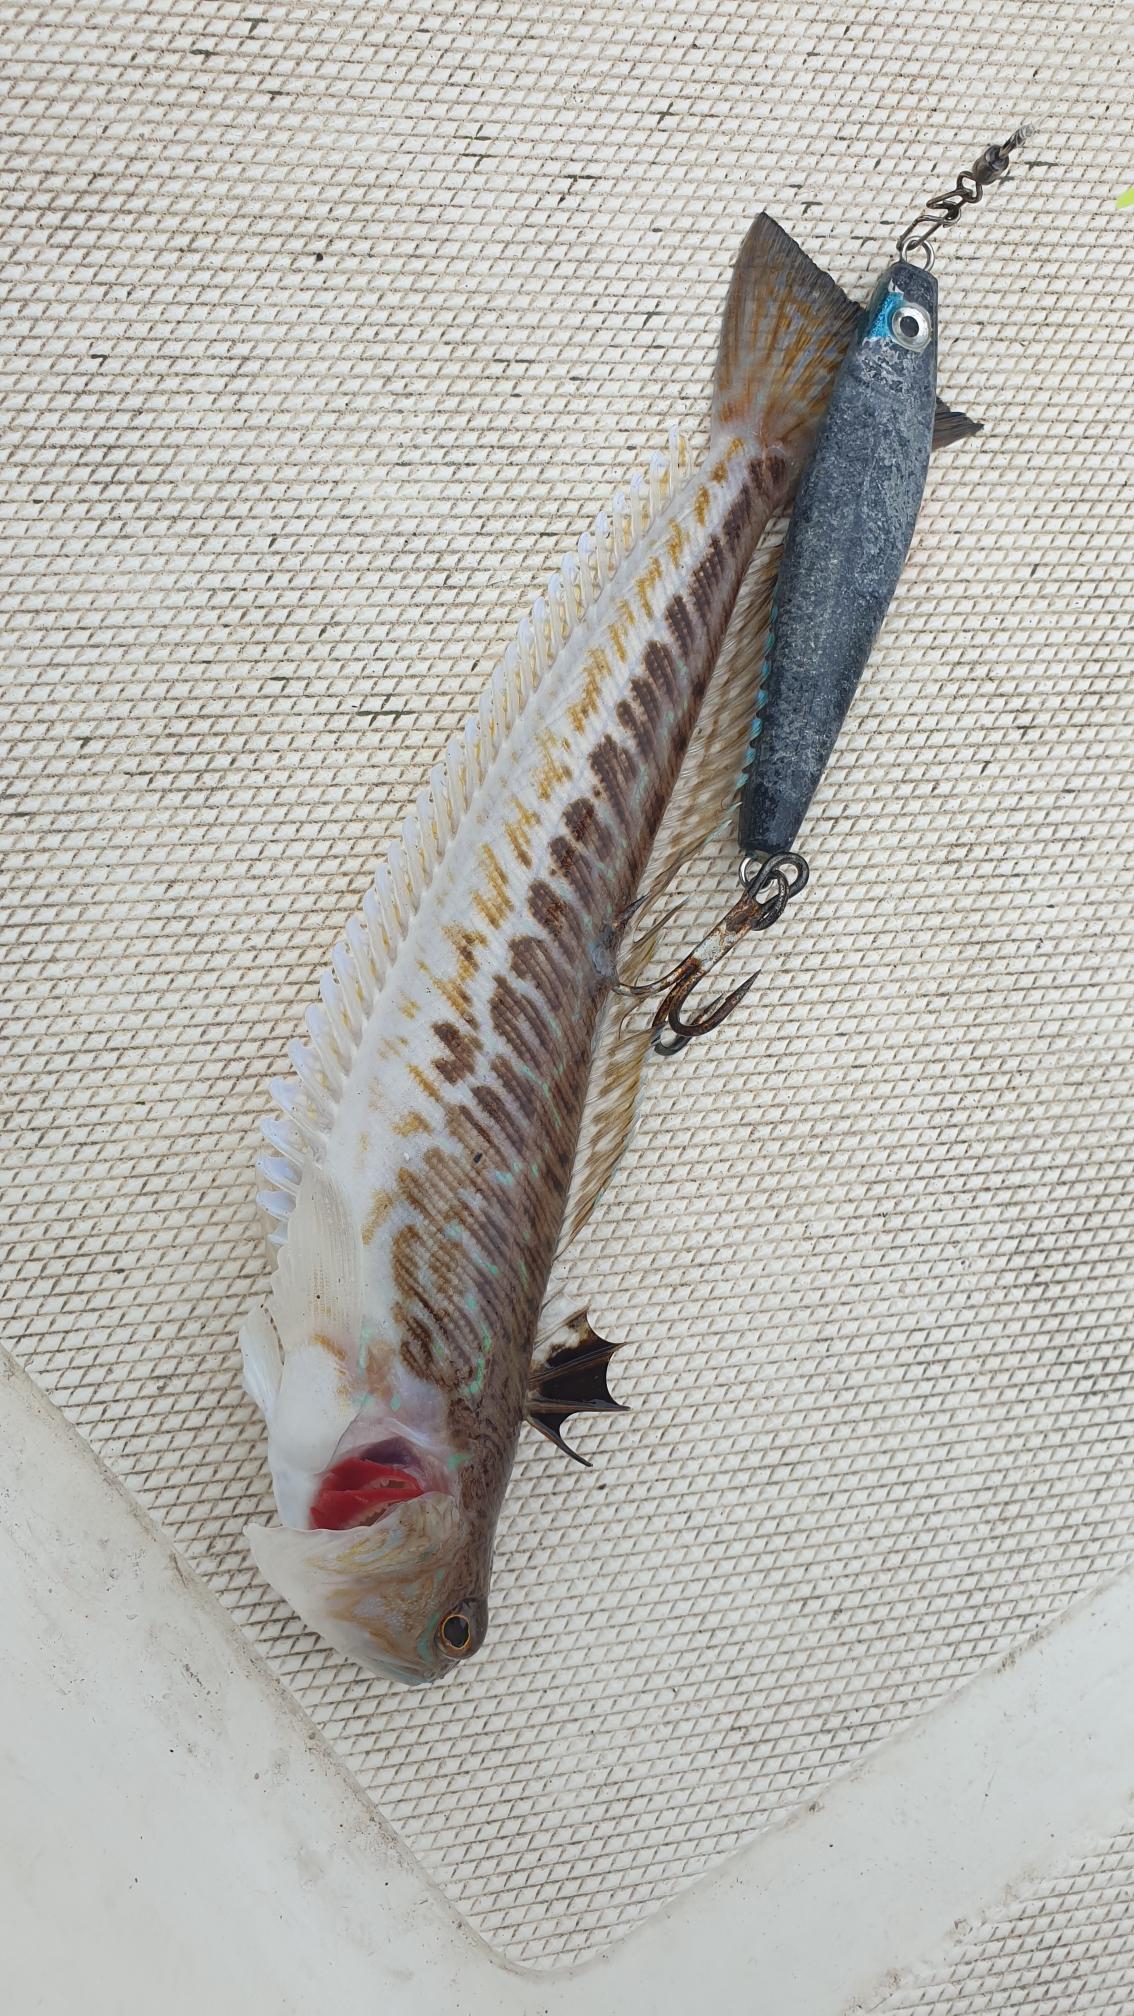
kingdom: Animalia
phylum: Chordata
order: Perciformes
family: Trachinidae
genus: Trachinus
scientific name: Trachinus draco
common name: Almindelig fjæsing
